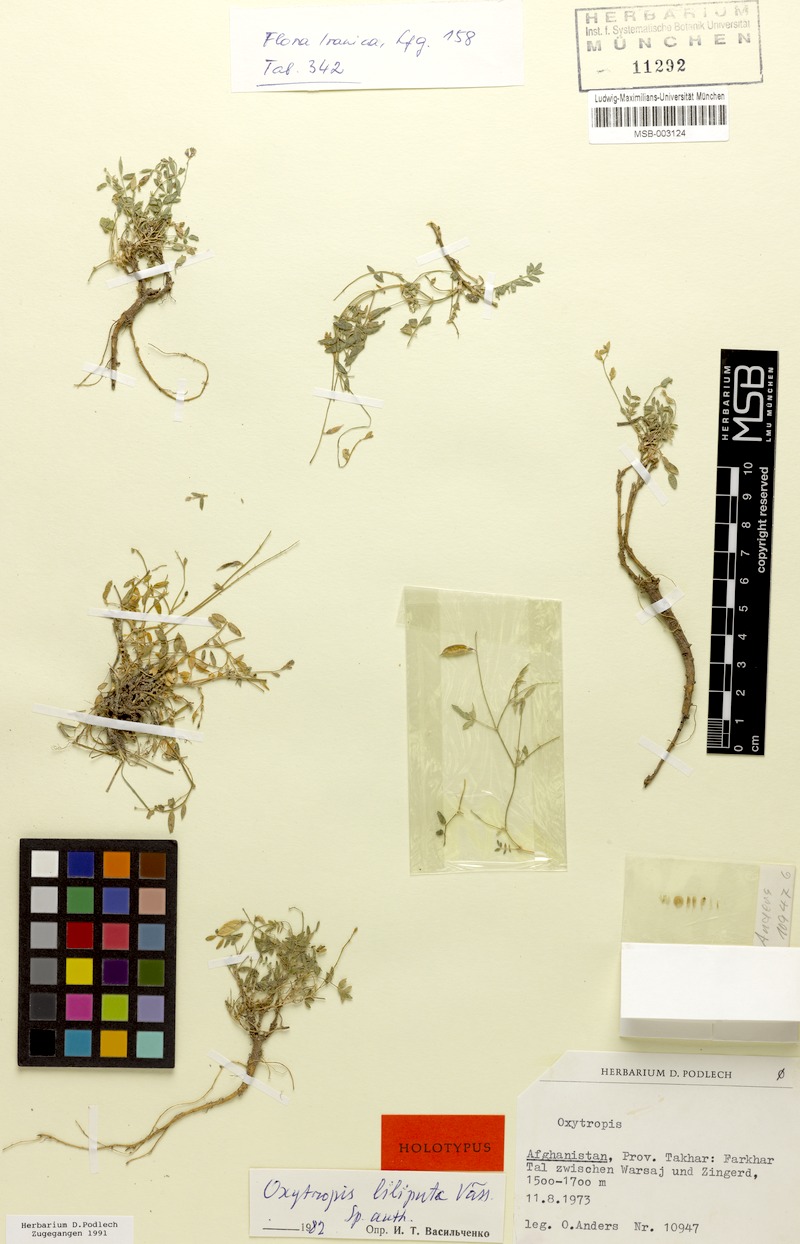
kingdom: Plantae
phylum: Tracheophyta
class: Magnoliopsida
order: Fabales
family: Fabaceae
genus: Oxytropis
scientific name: Oxytropis heratensis
